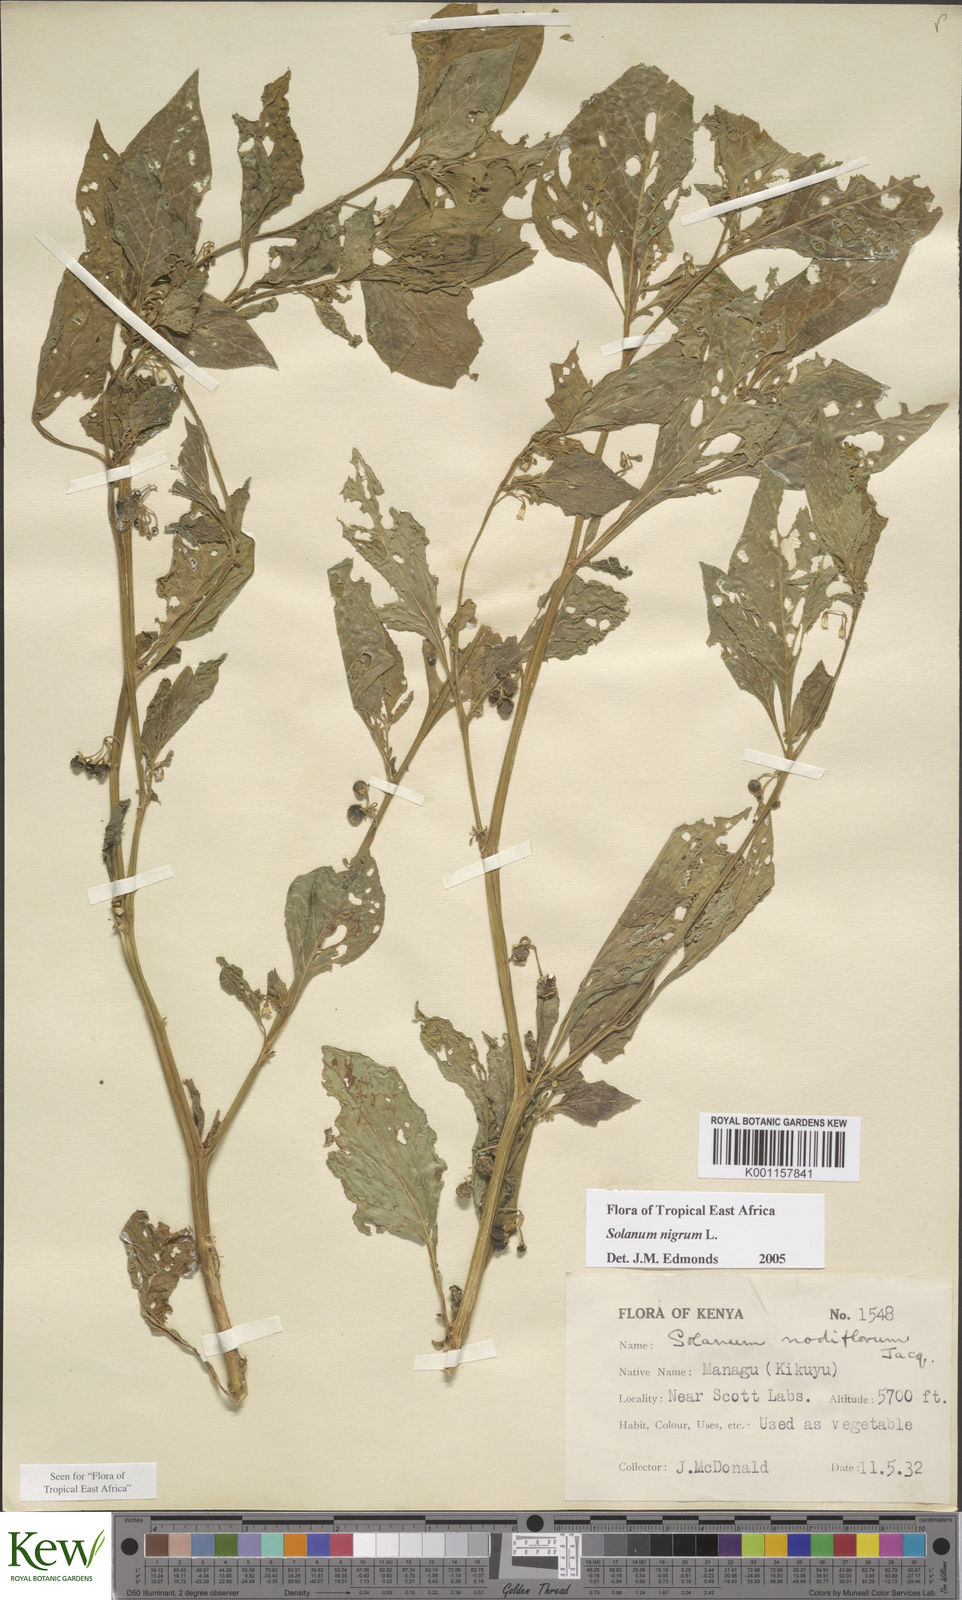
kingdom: Plantae
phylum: Tracheophyta
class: Magnoliopsida
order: Solanales
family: Solanaceae
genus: Solanum
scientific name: Solanum nigrum
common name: Black nightshade
